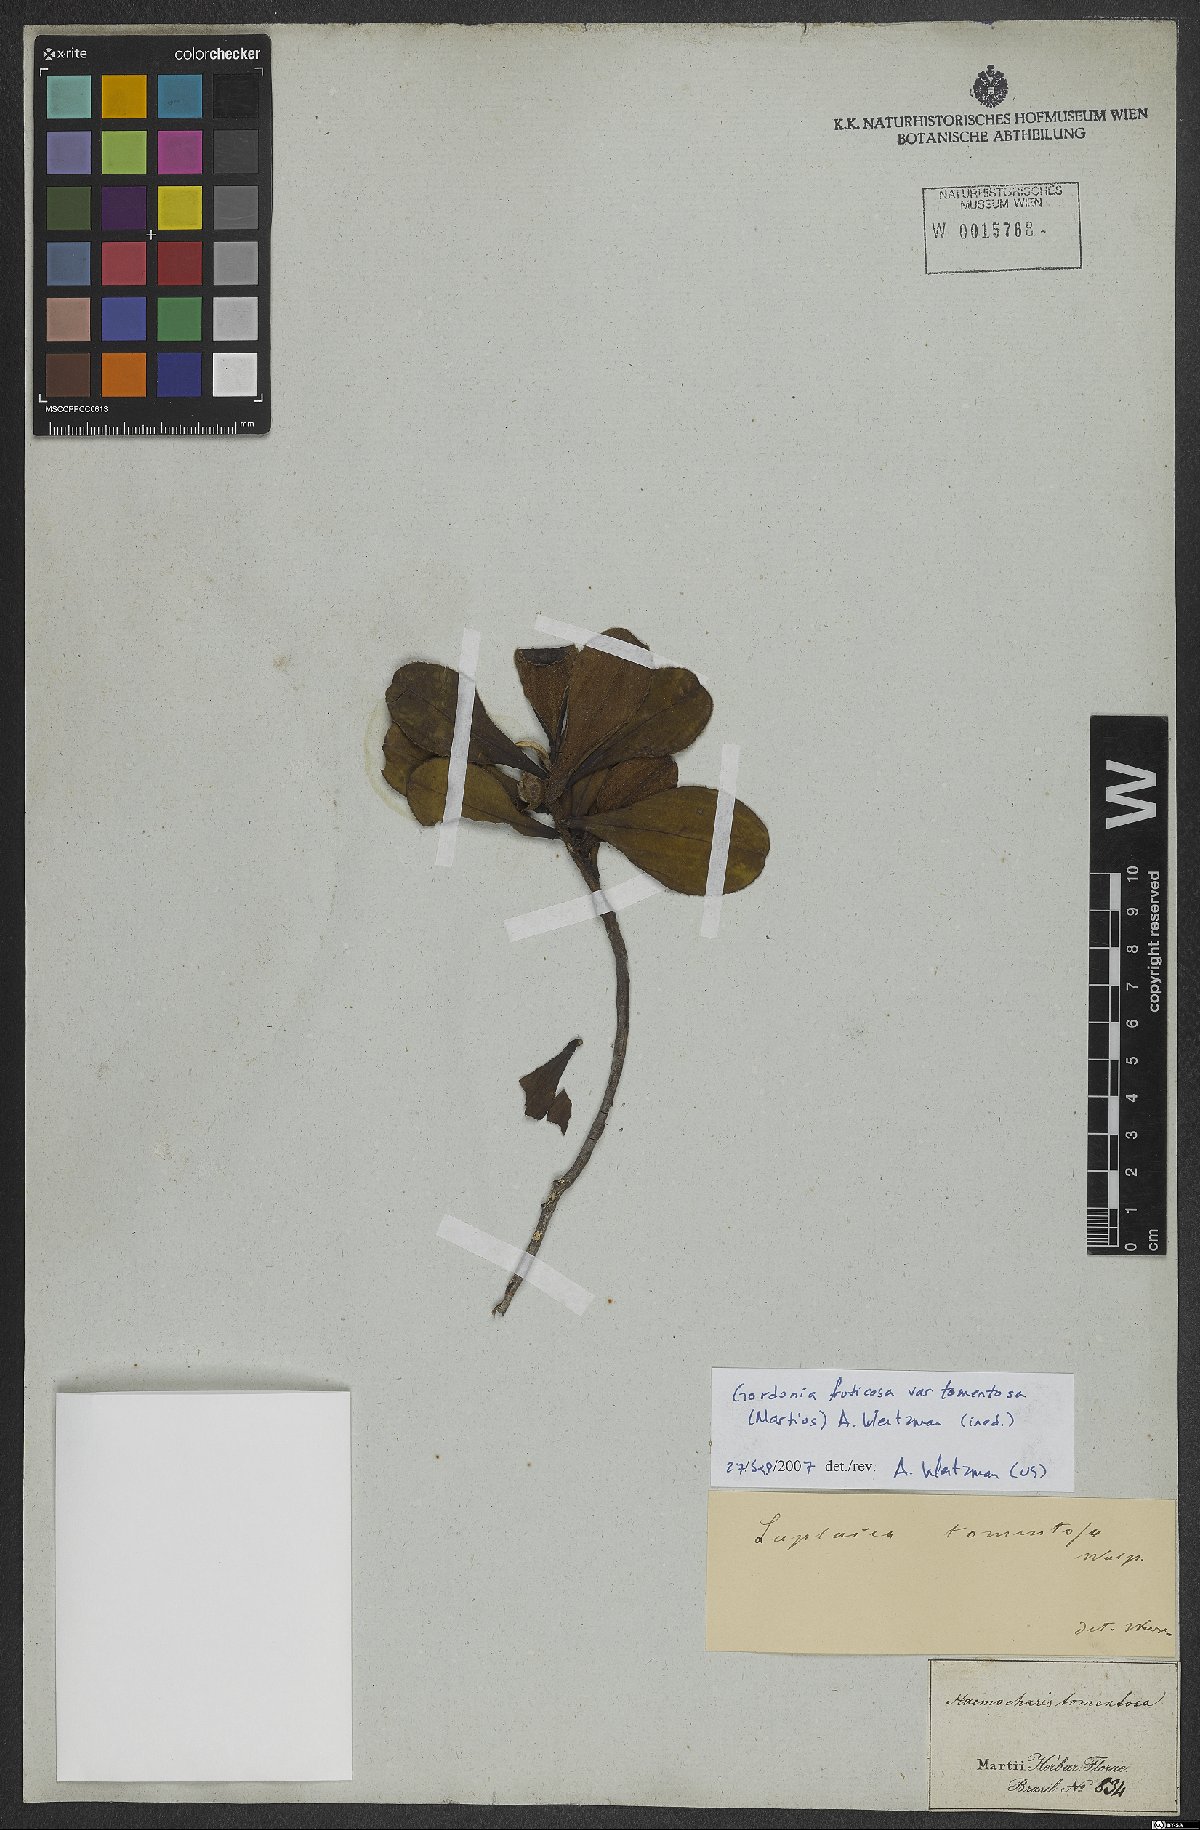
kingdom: Plantae
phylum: Tracheophyta
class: Magnoliopsida
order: Ericales
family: Theaceae
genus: Gordonia
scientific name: Gordonia tomentosa
